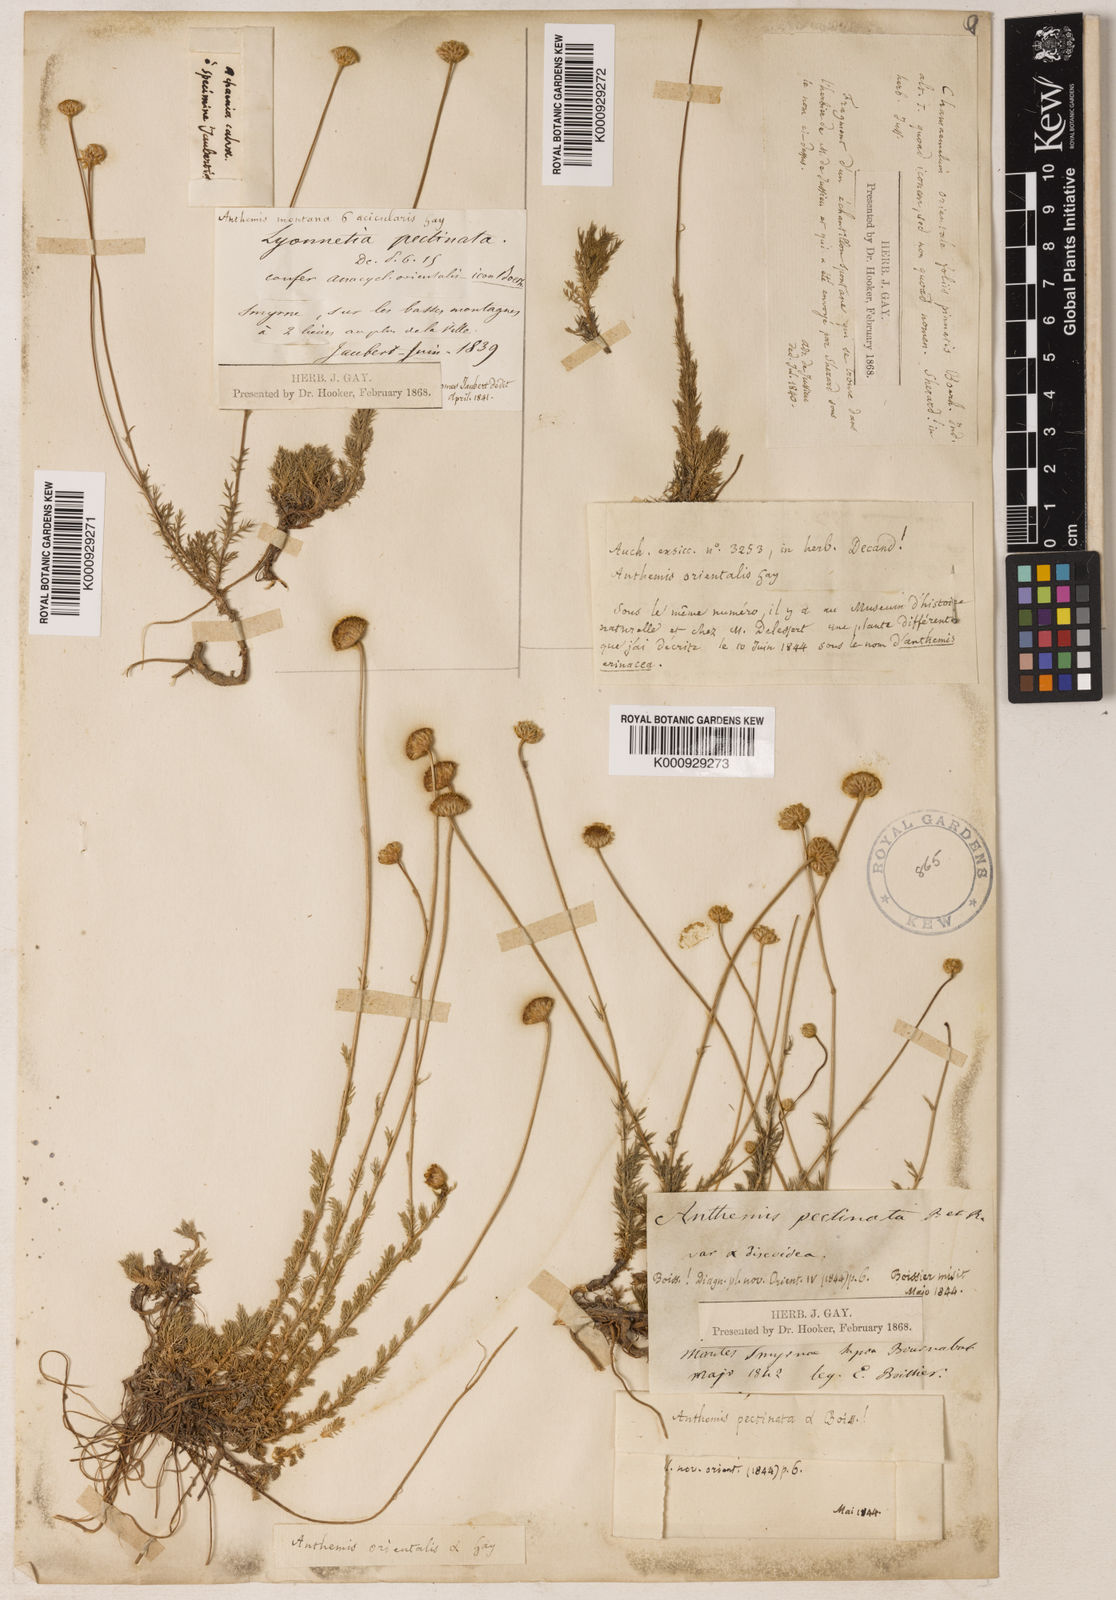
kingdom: Plantae
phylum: Tracheophyta
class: Magnoliopsida
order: Asterales
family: Asteraceae
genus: Anthemis
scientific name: Anthemis orientalis
